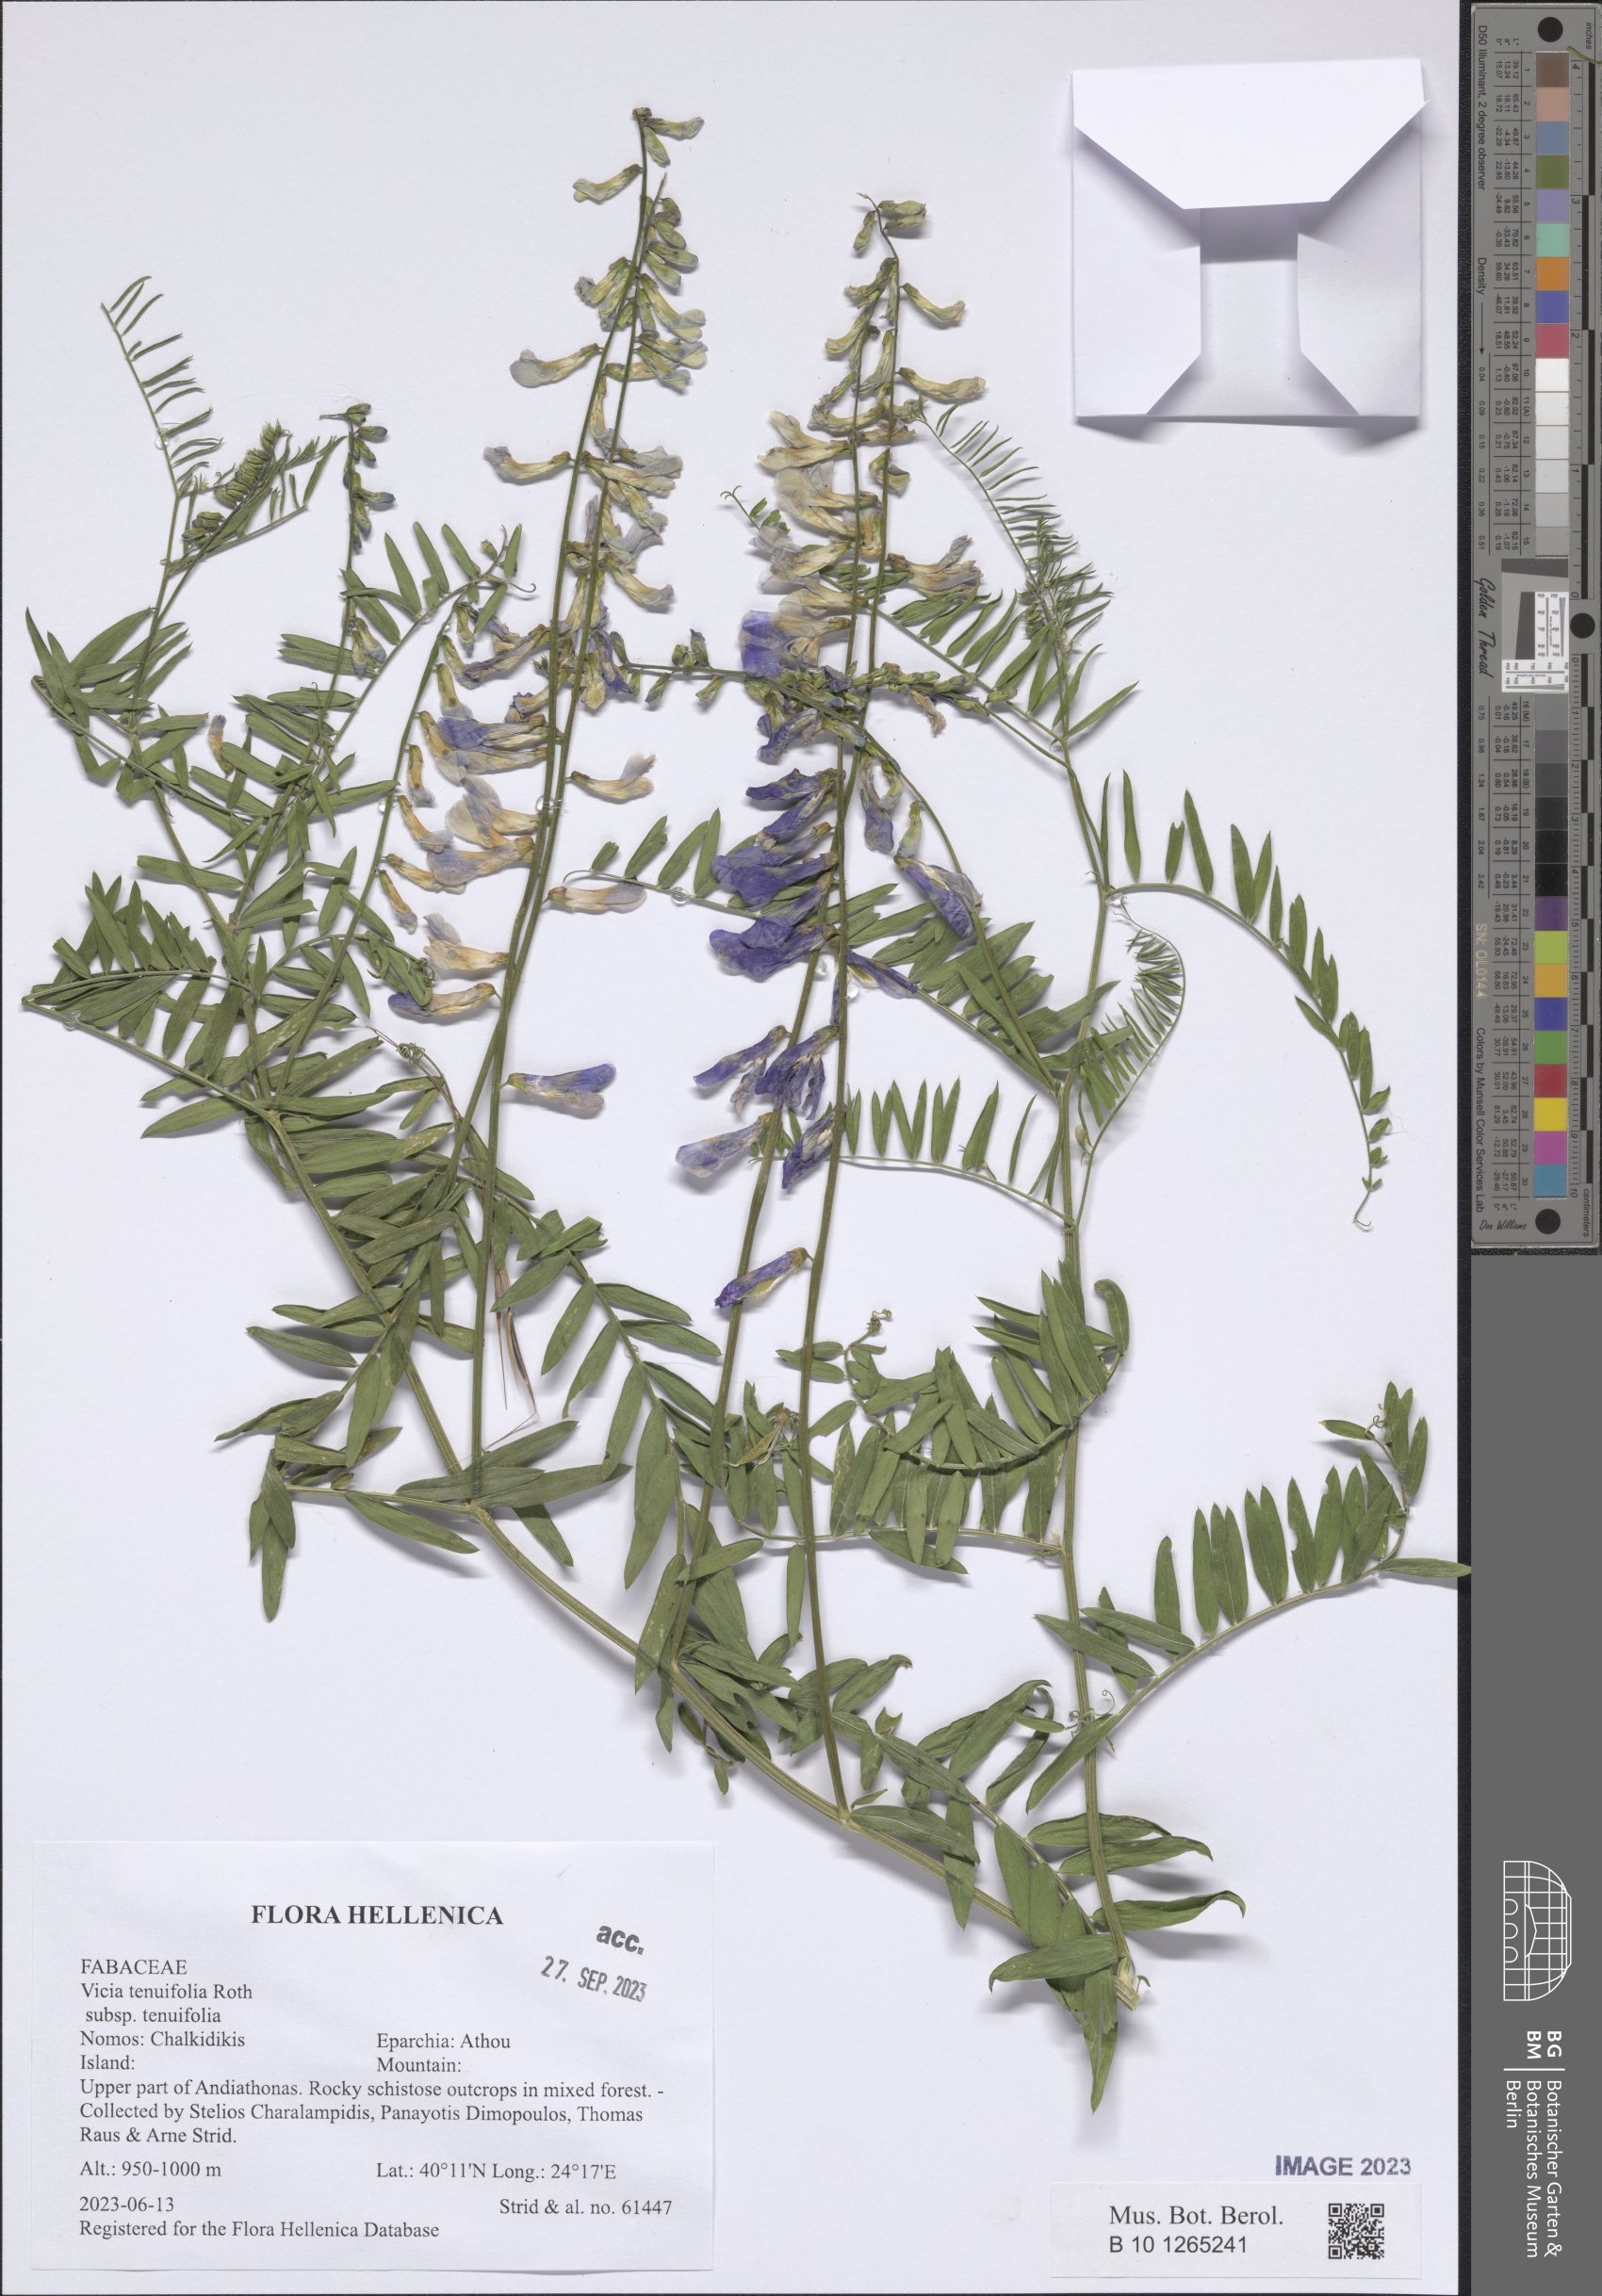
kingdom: Plantae
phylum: Tracheophyta
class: Magnoliopsida
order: Fabales
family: Fabaceae
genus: Vicia
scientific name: Vicia tenuifolia
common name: Fine-leaved vetch
